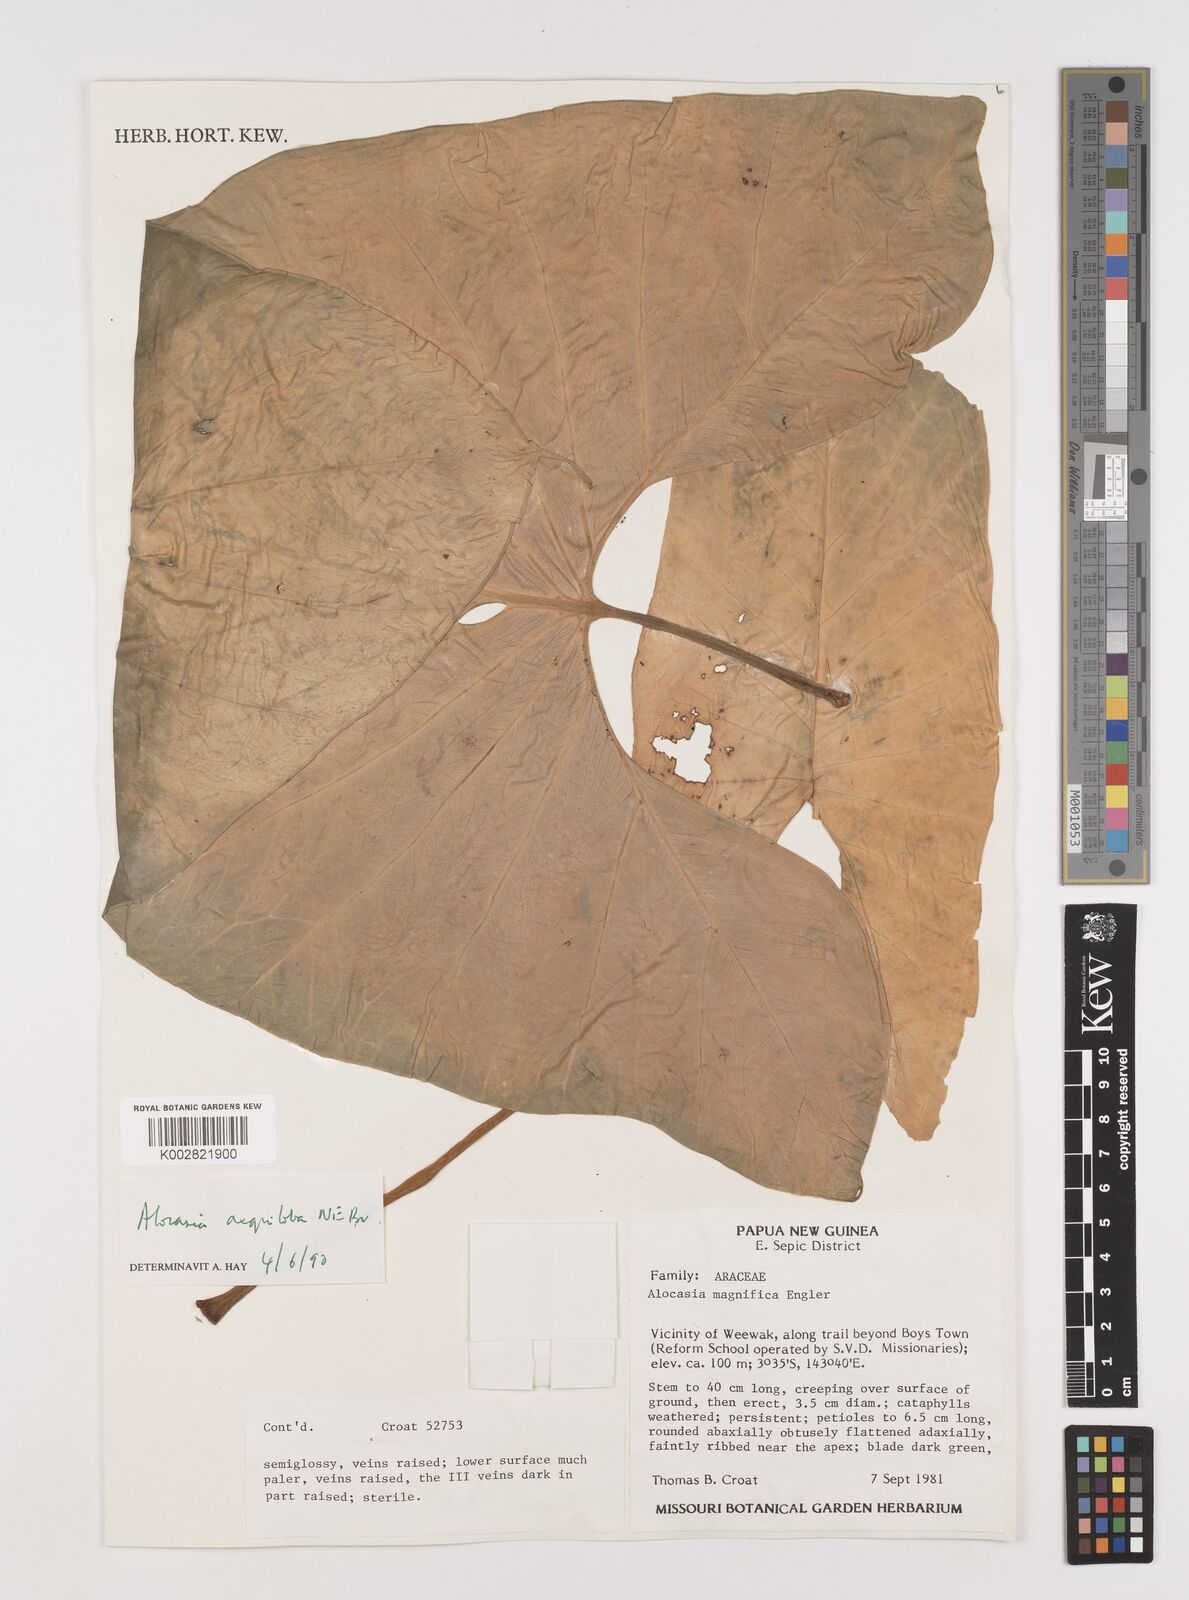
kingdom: Plantae
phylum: Tracheophyta
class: Liliopsida
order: Alismatales
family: Araceae
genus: Alocasia
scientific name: Alocasia aequiloba
